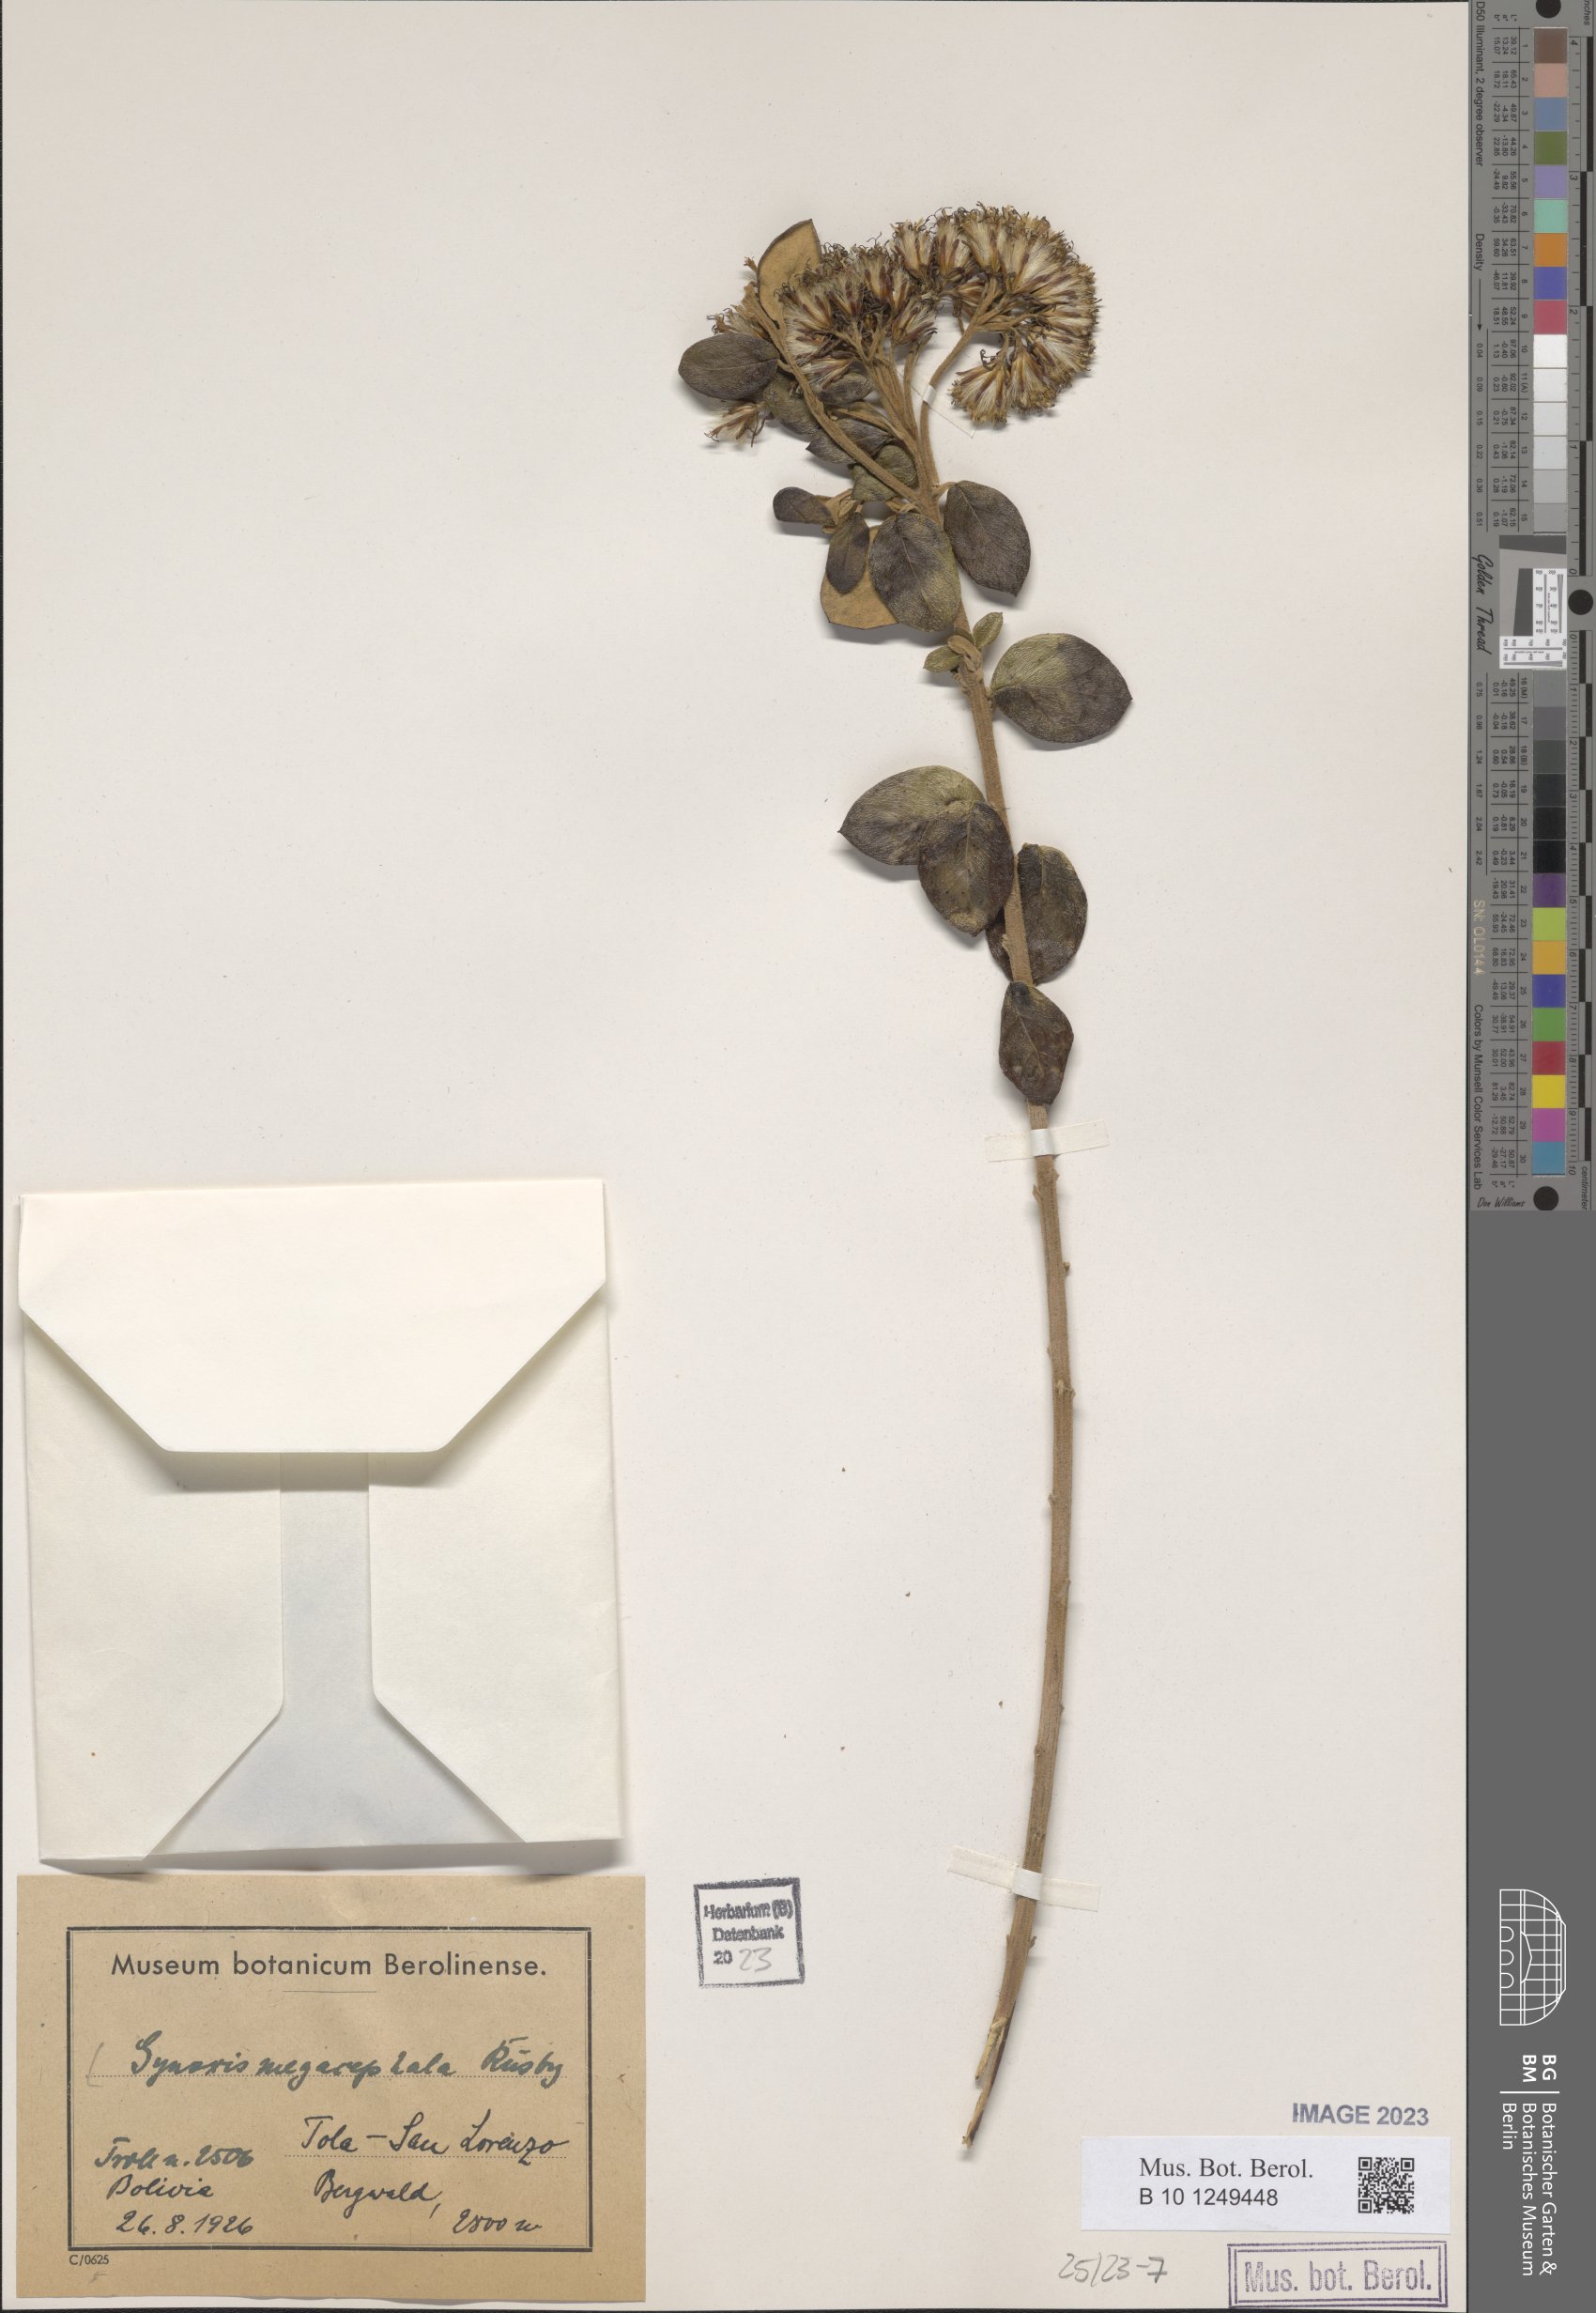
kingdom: Plantae
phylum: Tracheophyta
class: Magnoliopsida
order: Asterales
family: Asteraceae
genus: Gynoxys
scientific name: Gynoxys megacephala
